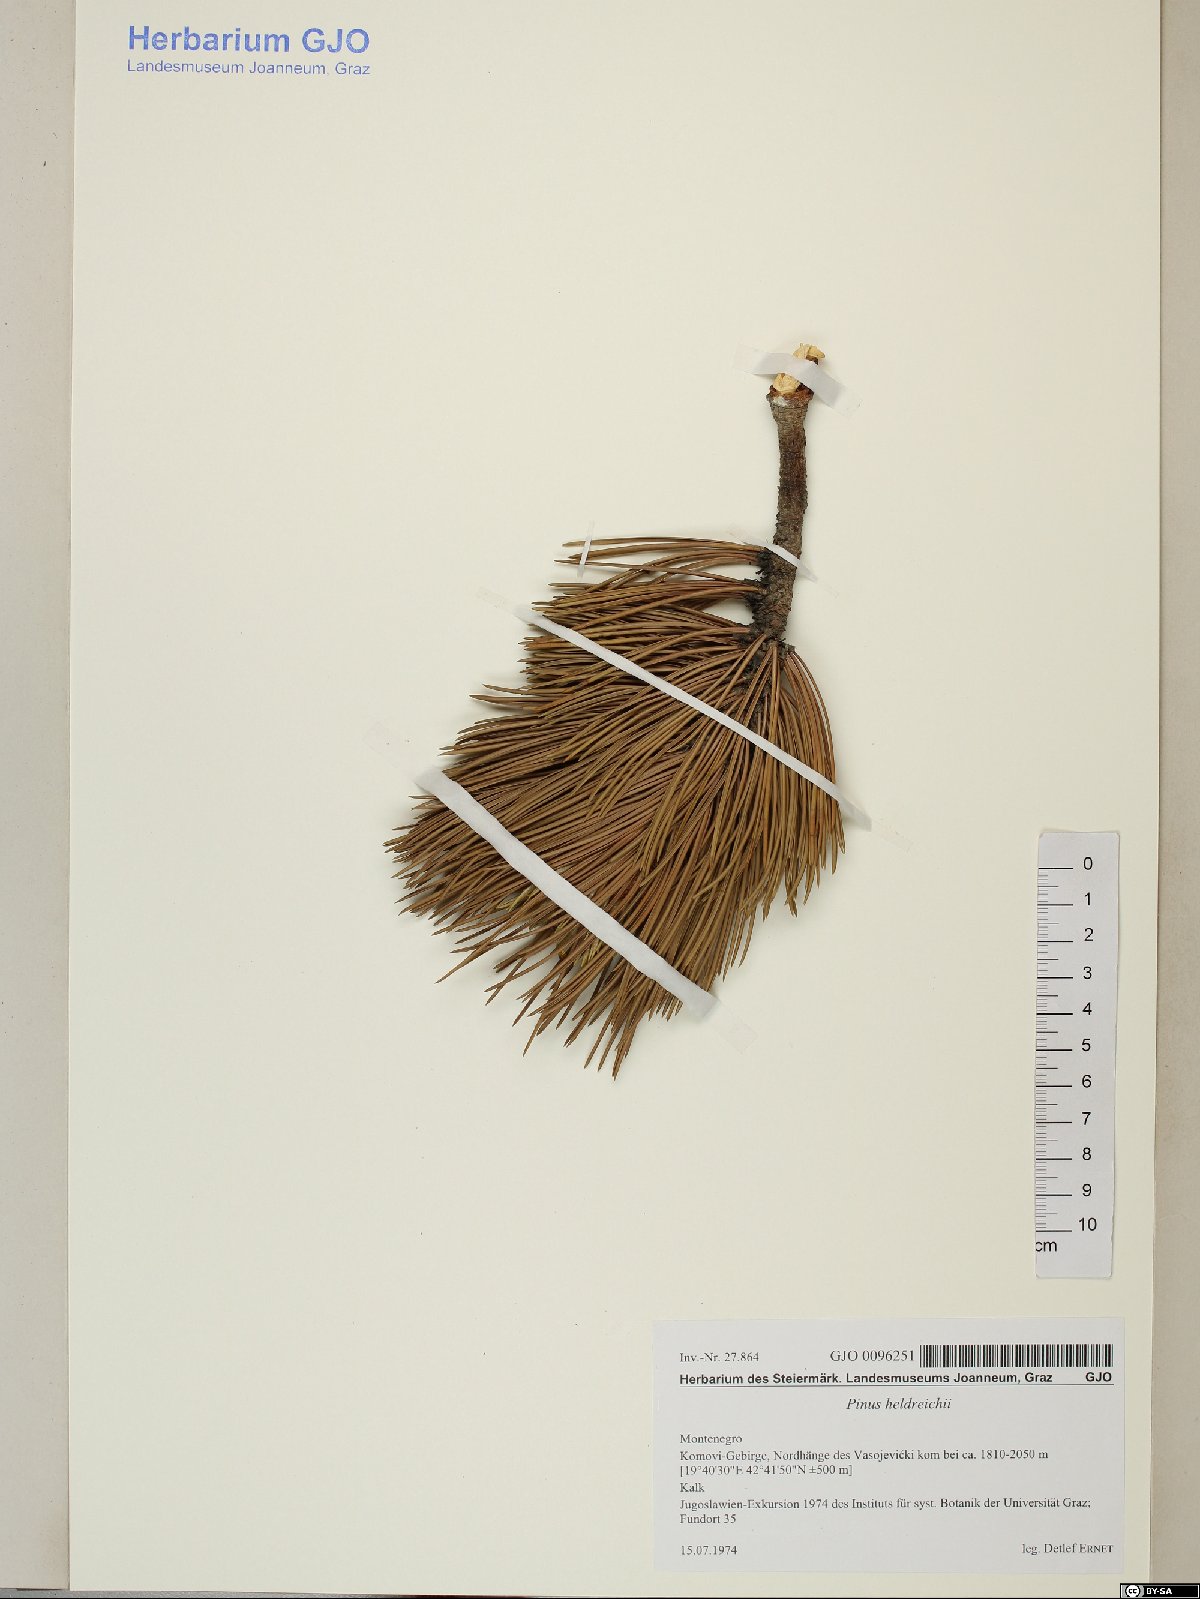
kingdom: Plantae
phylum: Tracheophyta
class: Pinopsida
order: Pinales
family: Pinaceae
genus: Pinus
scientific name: Pinus heldreichii
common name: Bosnian pine
